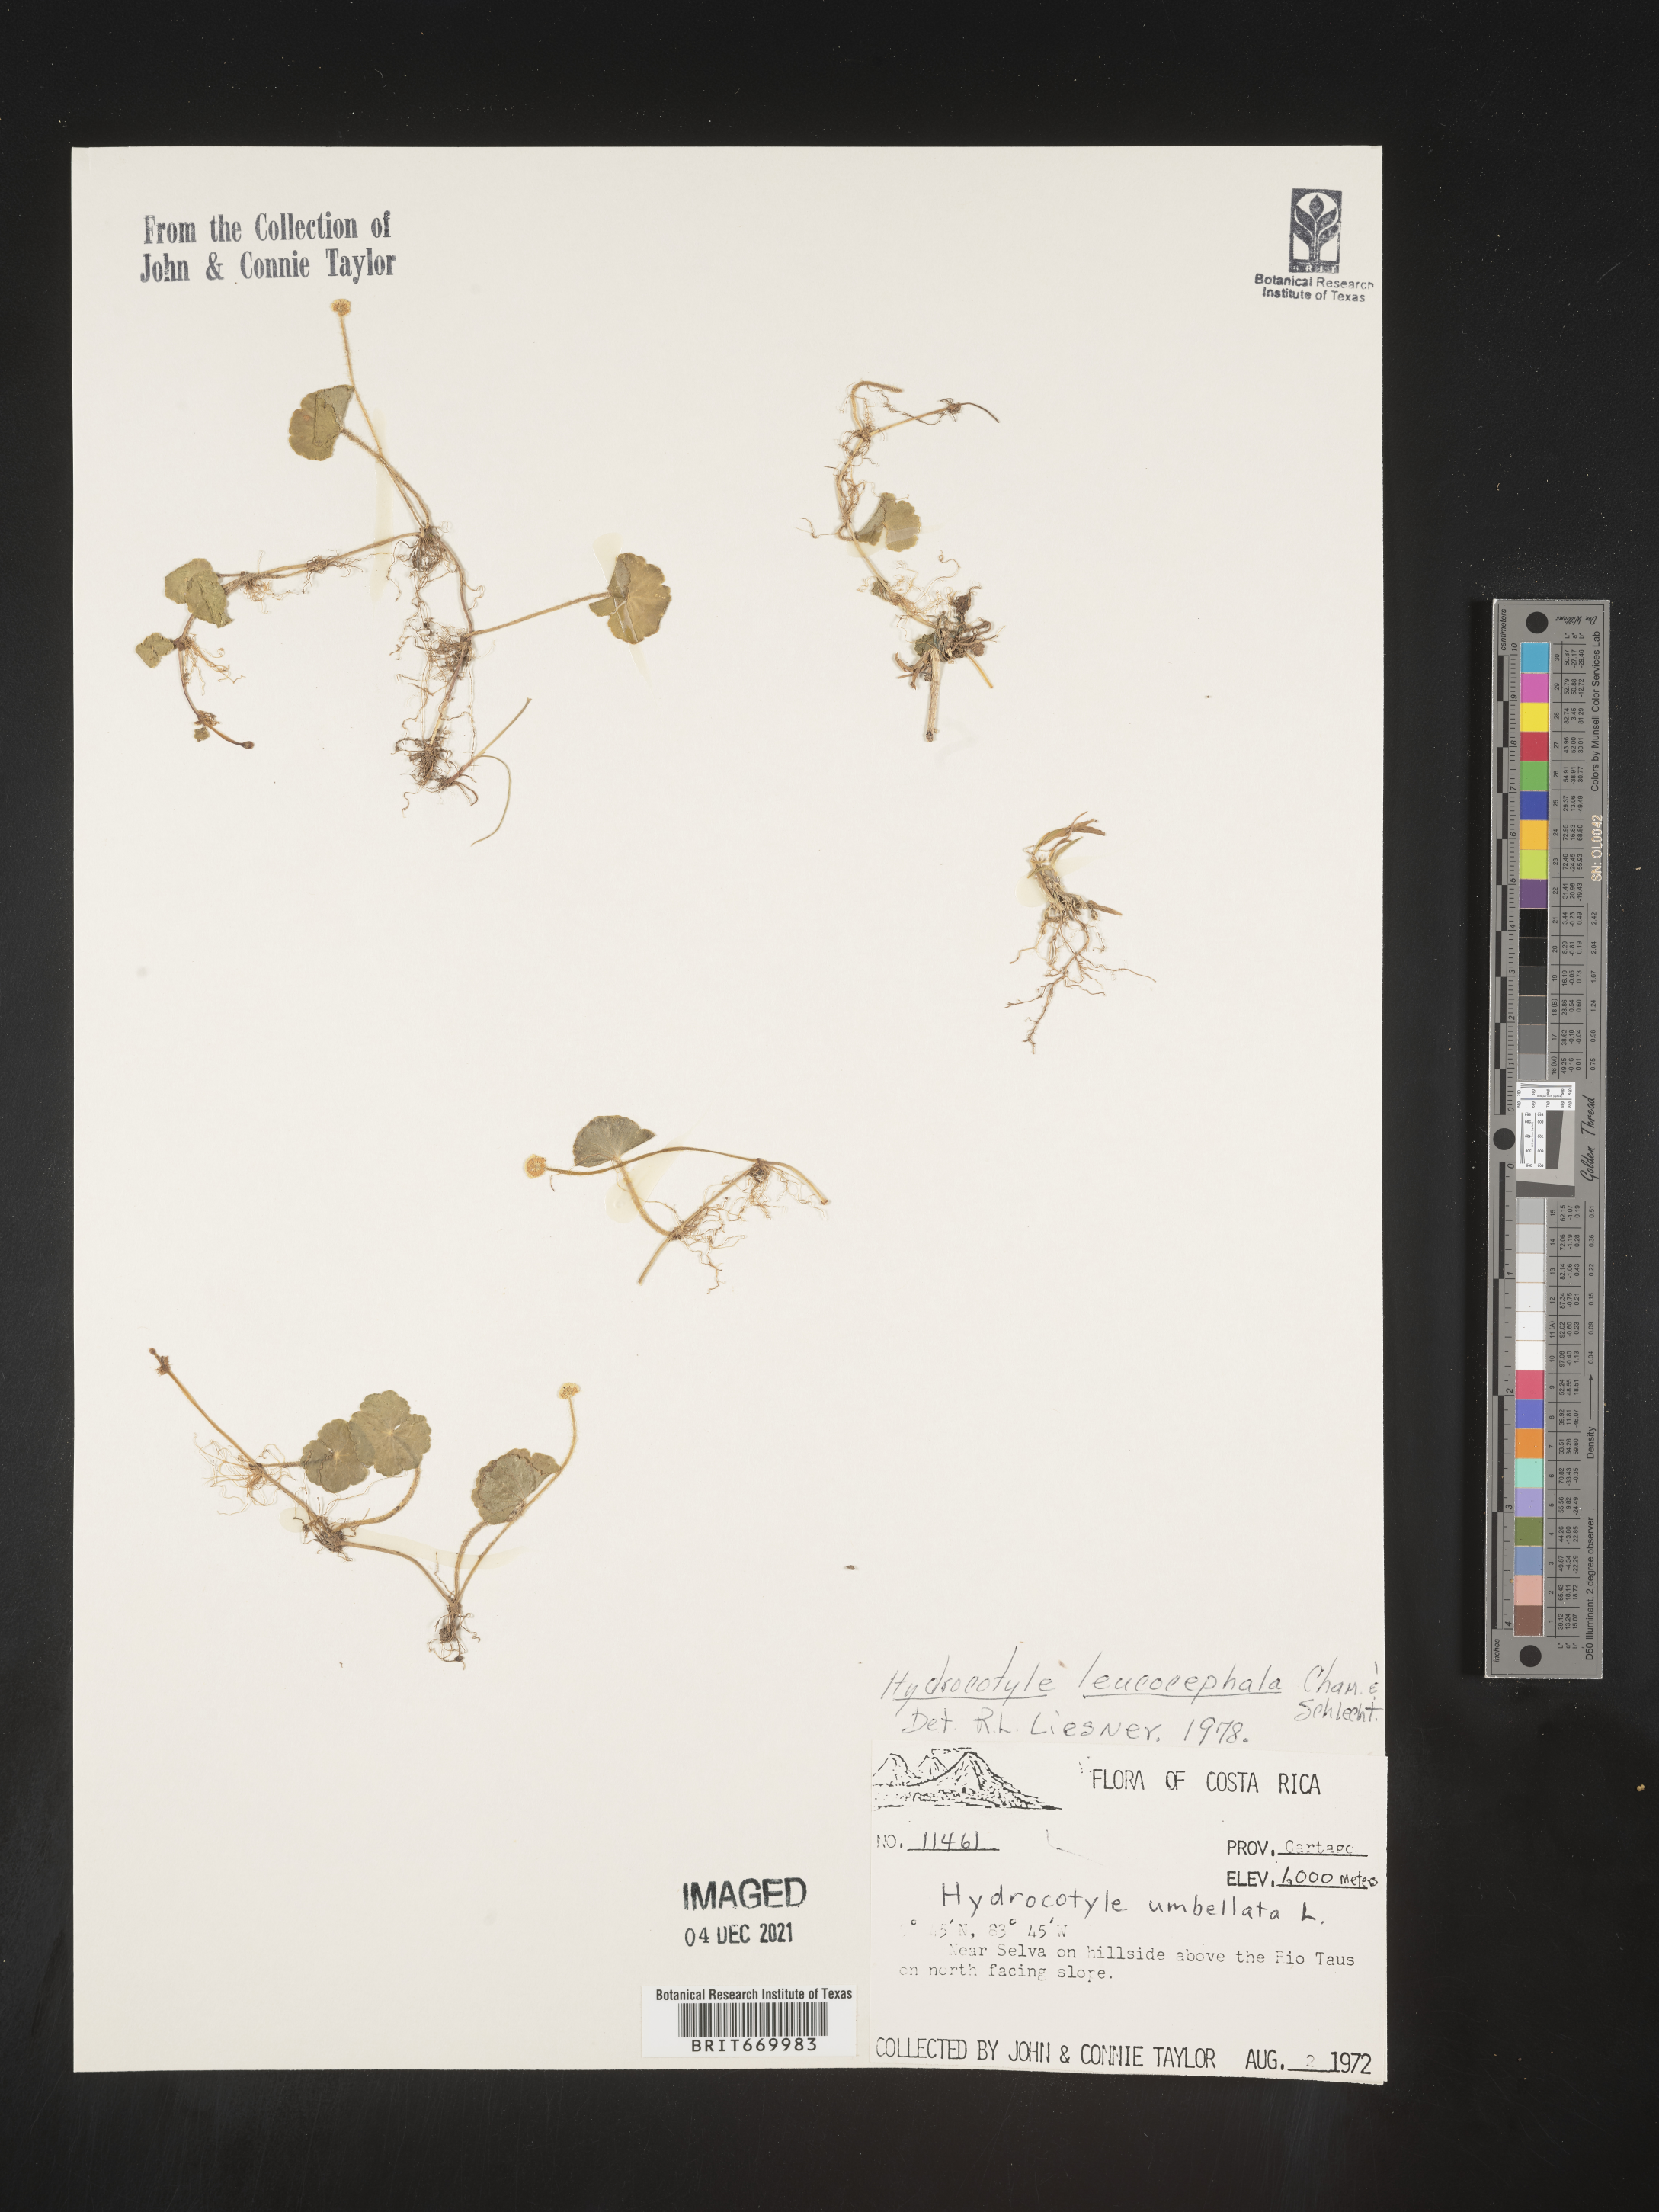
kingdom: Plantae
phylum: Tracheophyta
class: Magnoliopsida
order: Apiales
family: Araliaceae
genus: Hydrocotyle
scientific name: Hydrocotyle
